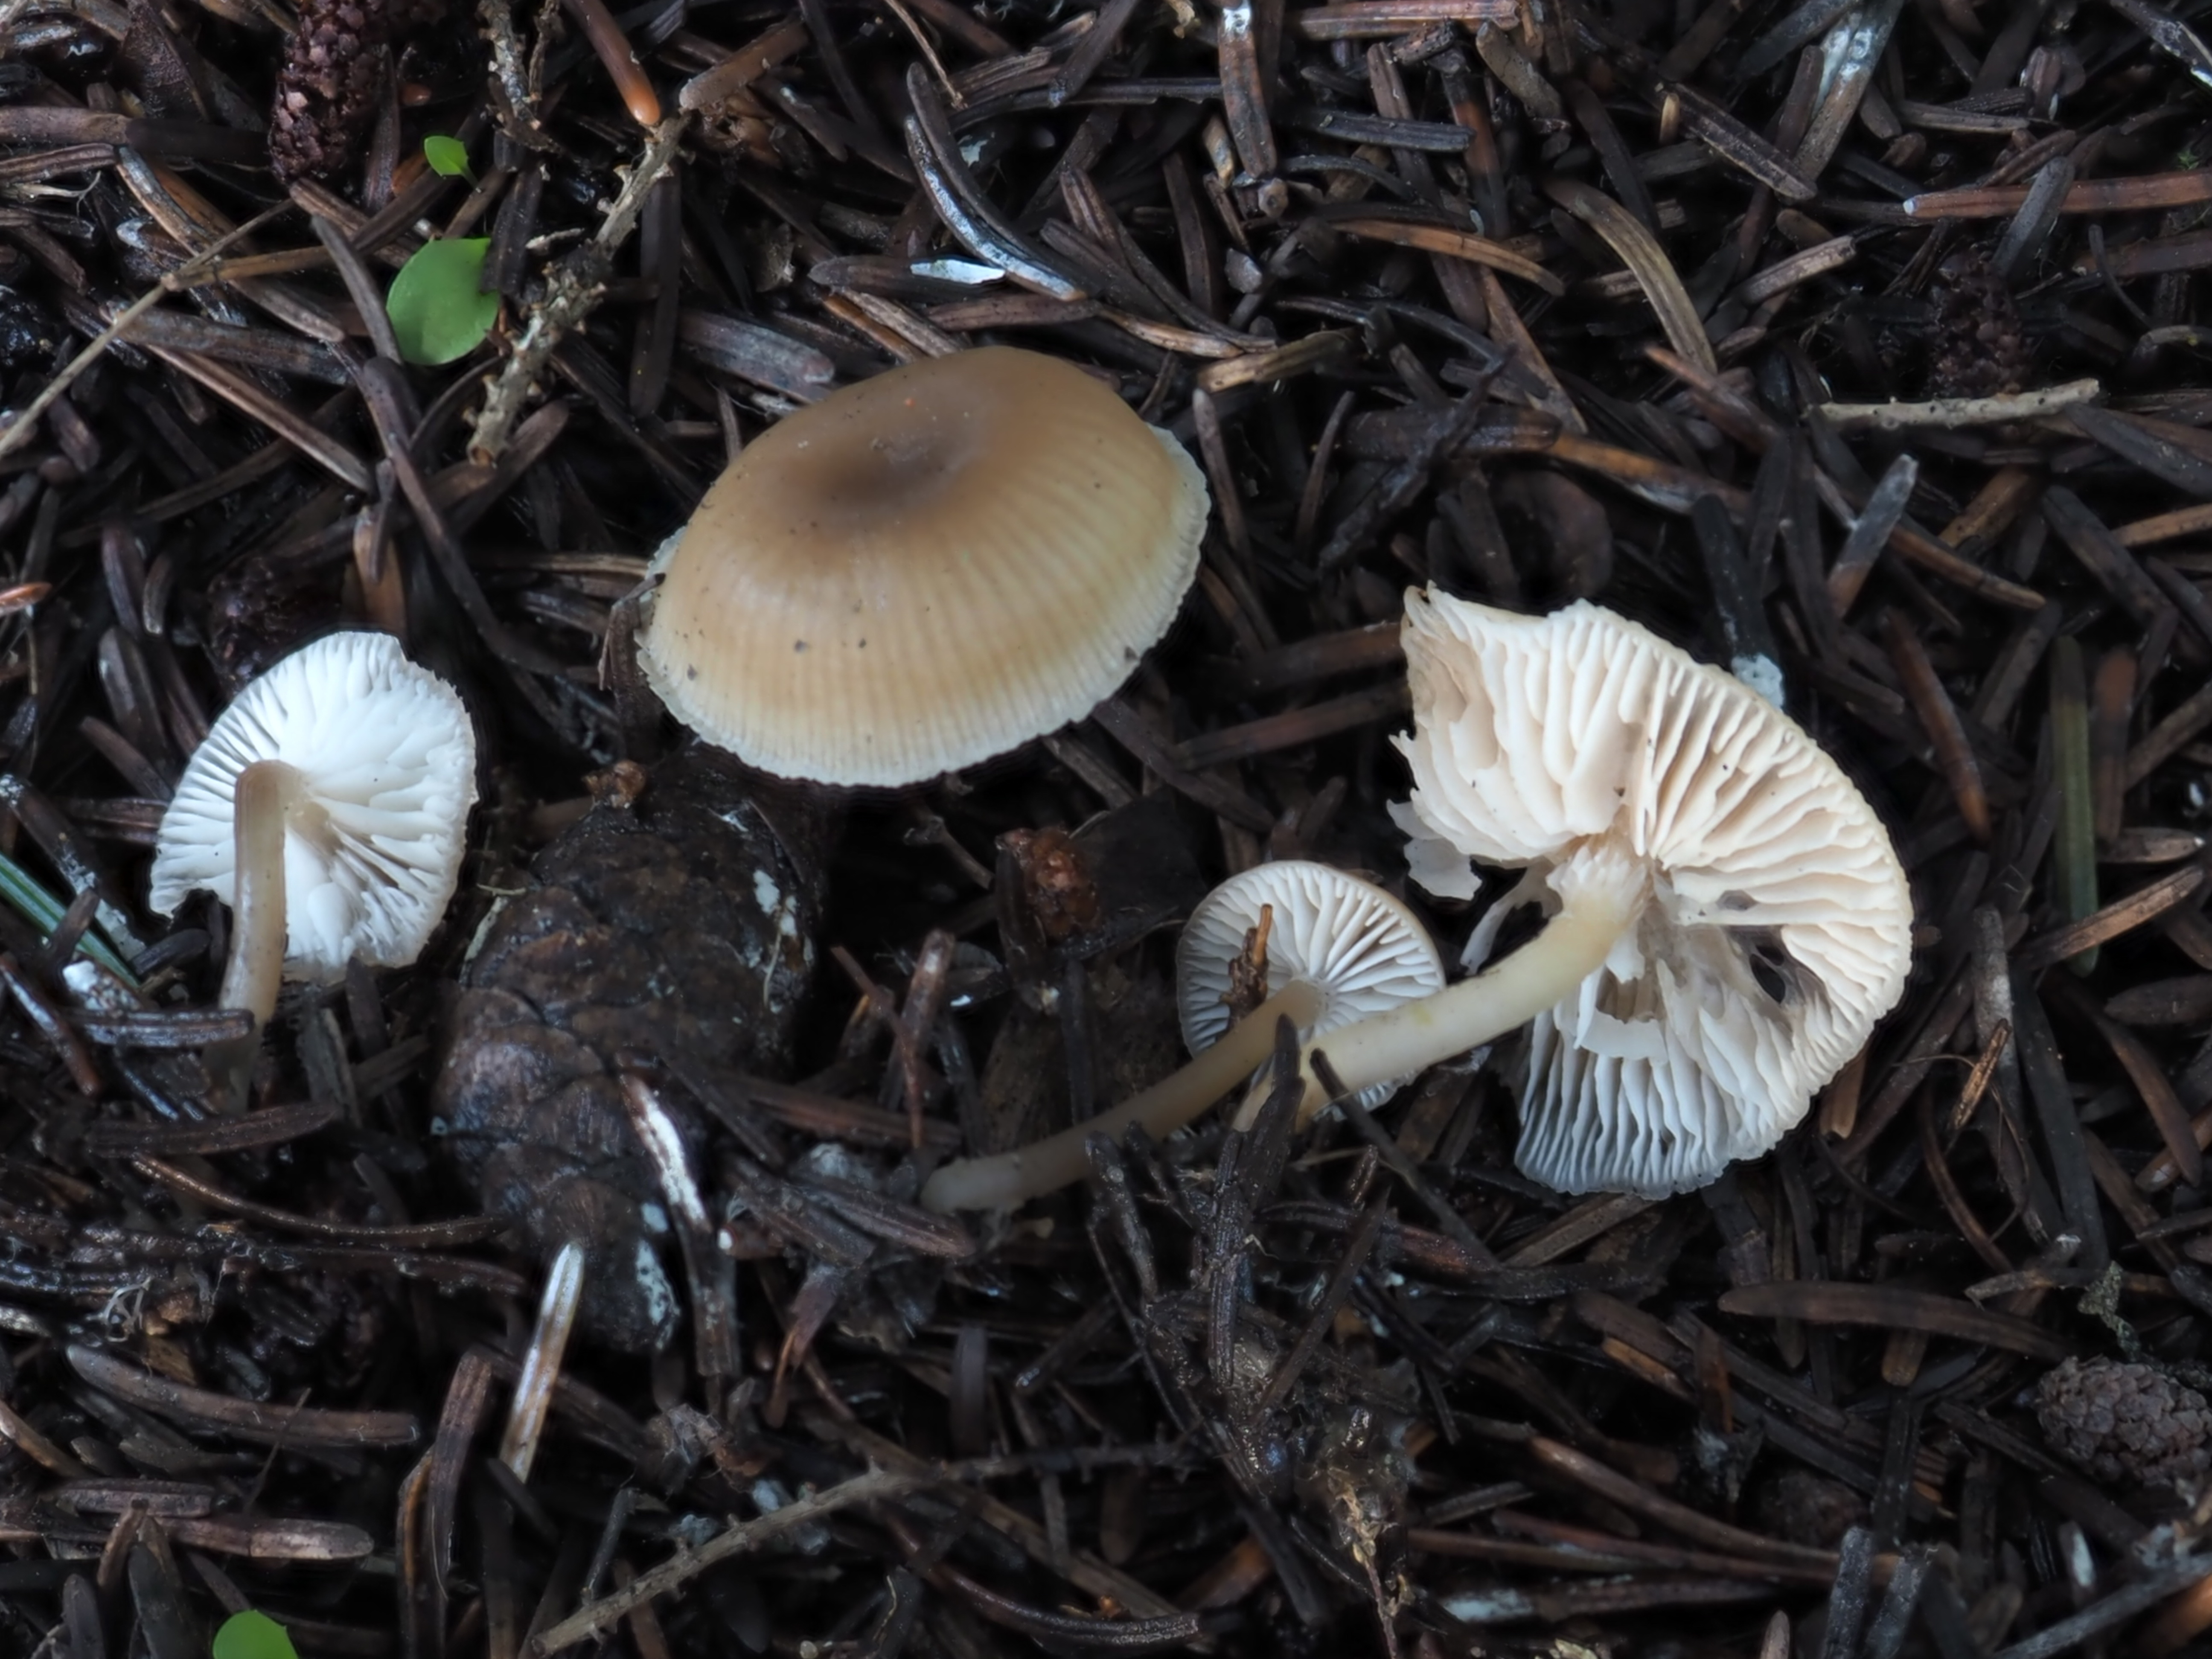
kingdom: Fungi
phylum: Basidiomycota
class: Agaricomycetes
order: Agaricales
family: Tricholomataceae
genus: Gamundia
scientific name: Gamundia striatula
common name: Lined meadowcap
